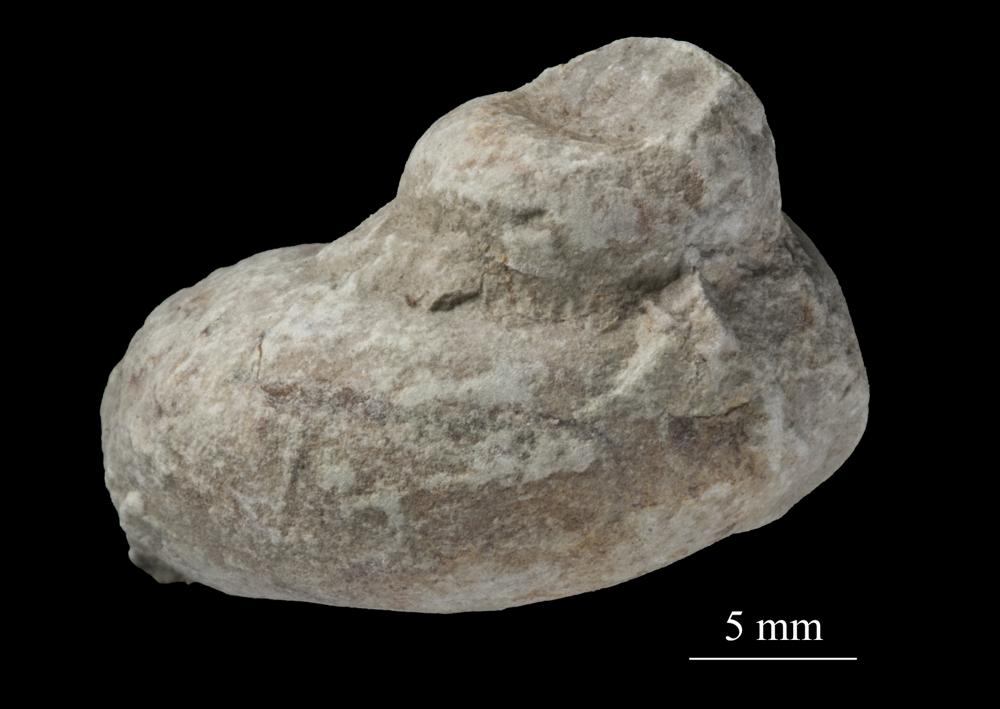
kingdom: Animalia
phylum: Mollusca
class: Gastropoda
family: Lophospiridae
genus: Loxoplocus
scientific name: Loxoplocus Worthenia vermetus
